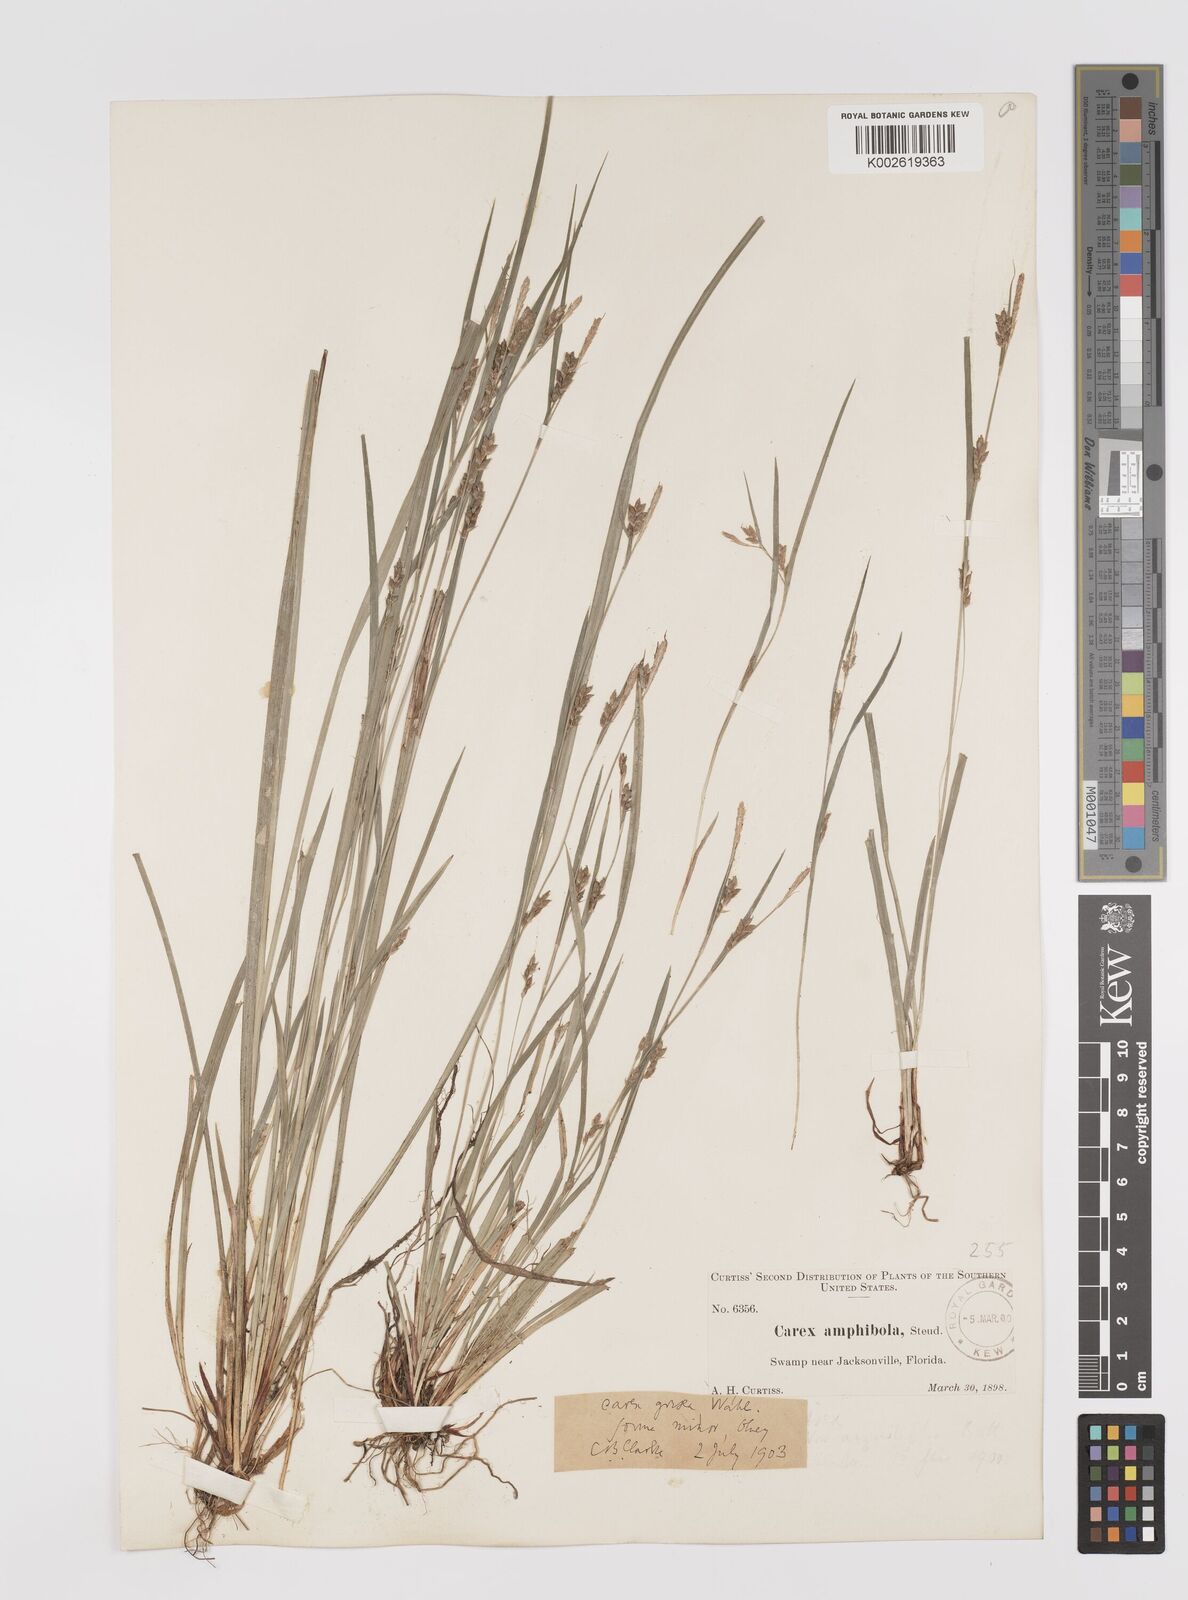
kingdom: Plantae
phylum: Tracheophyta
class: Liliopsida
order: Poales
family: Cyperaceae
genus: Carex
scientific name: Carex grisea
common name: Eastern narrow-leaved sedge
